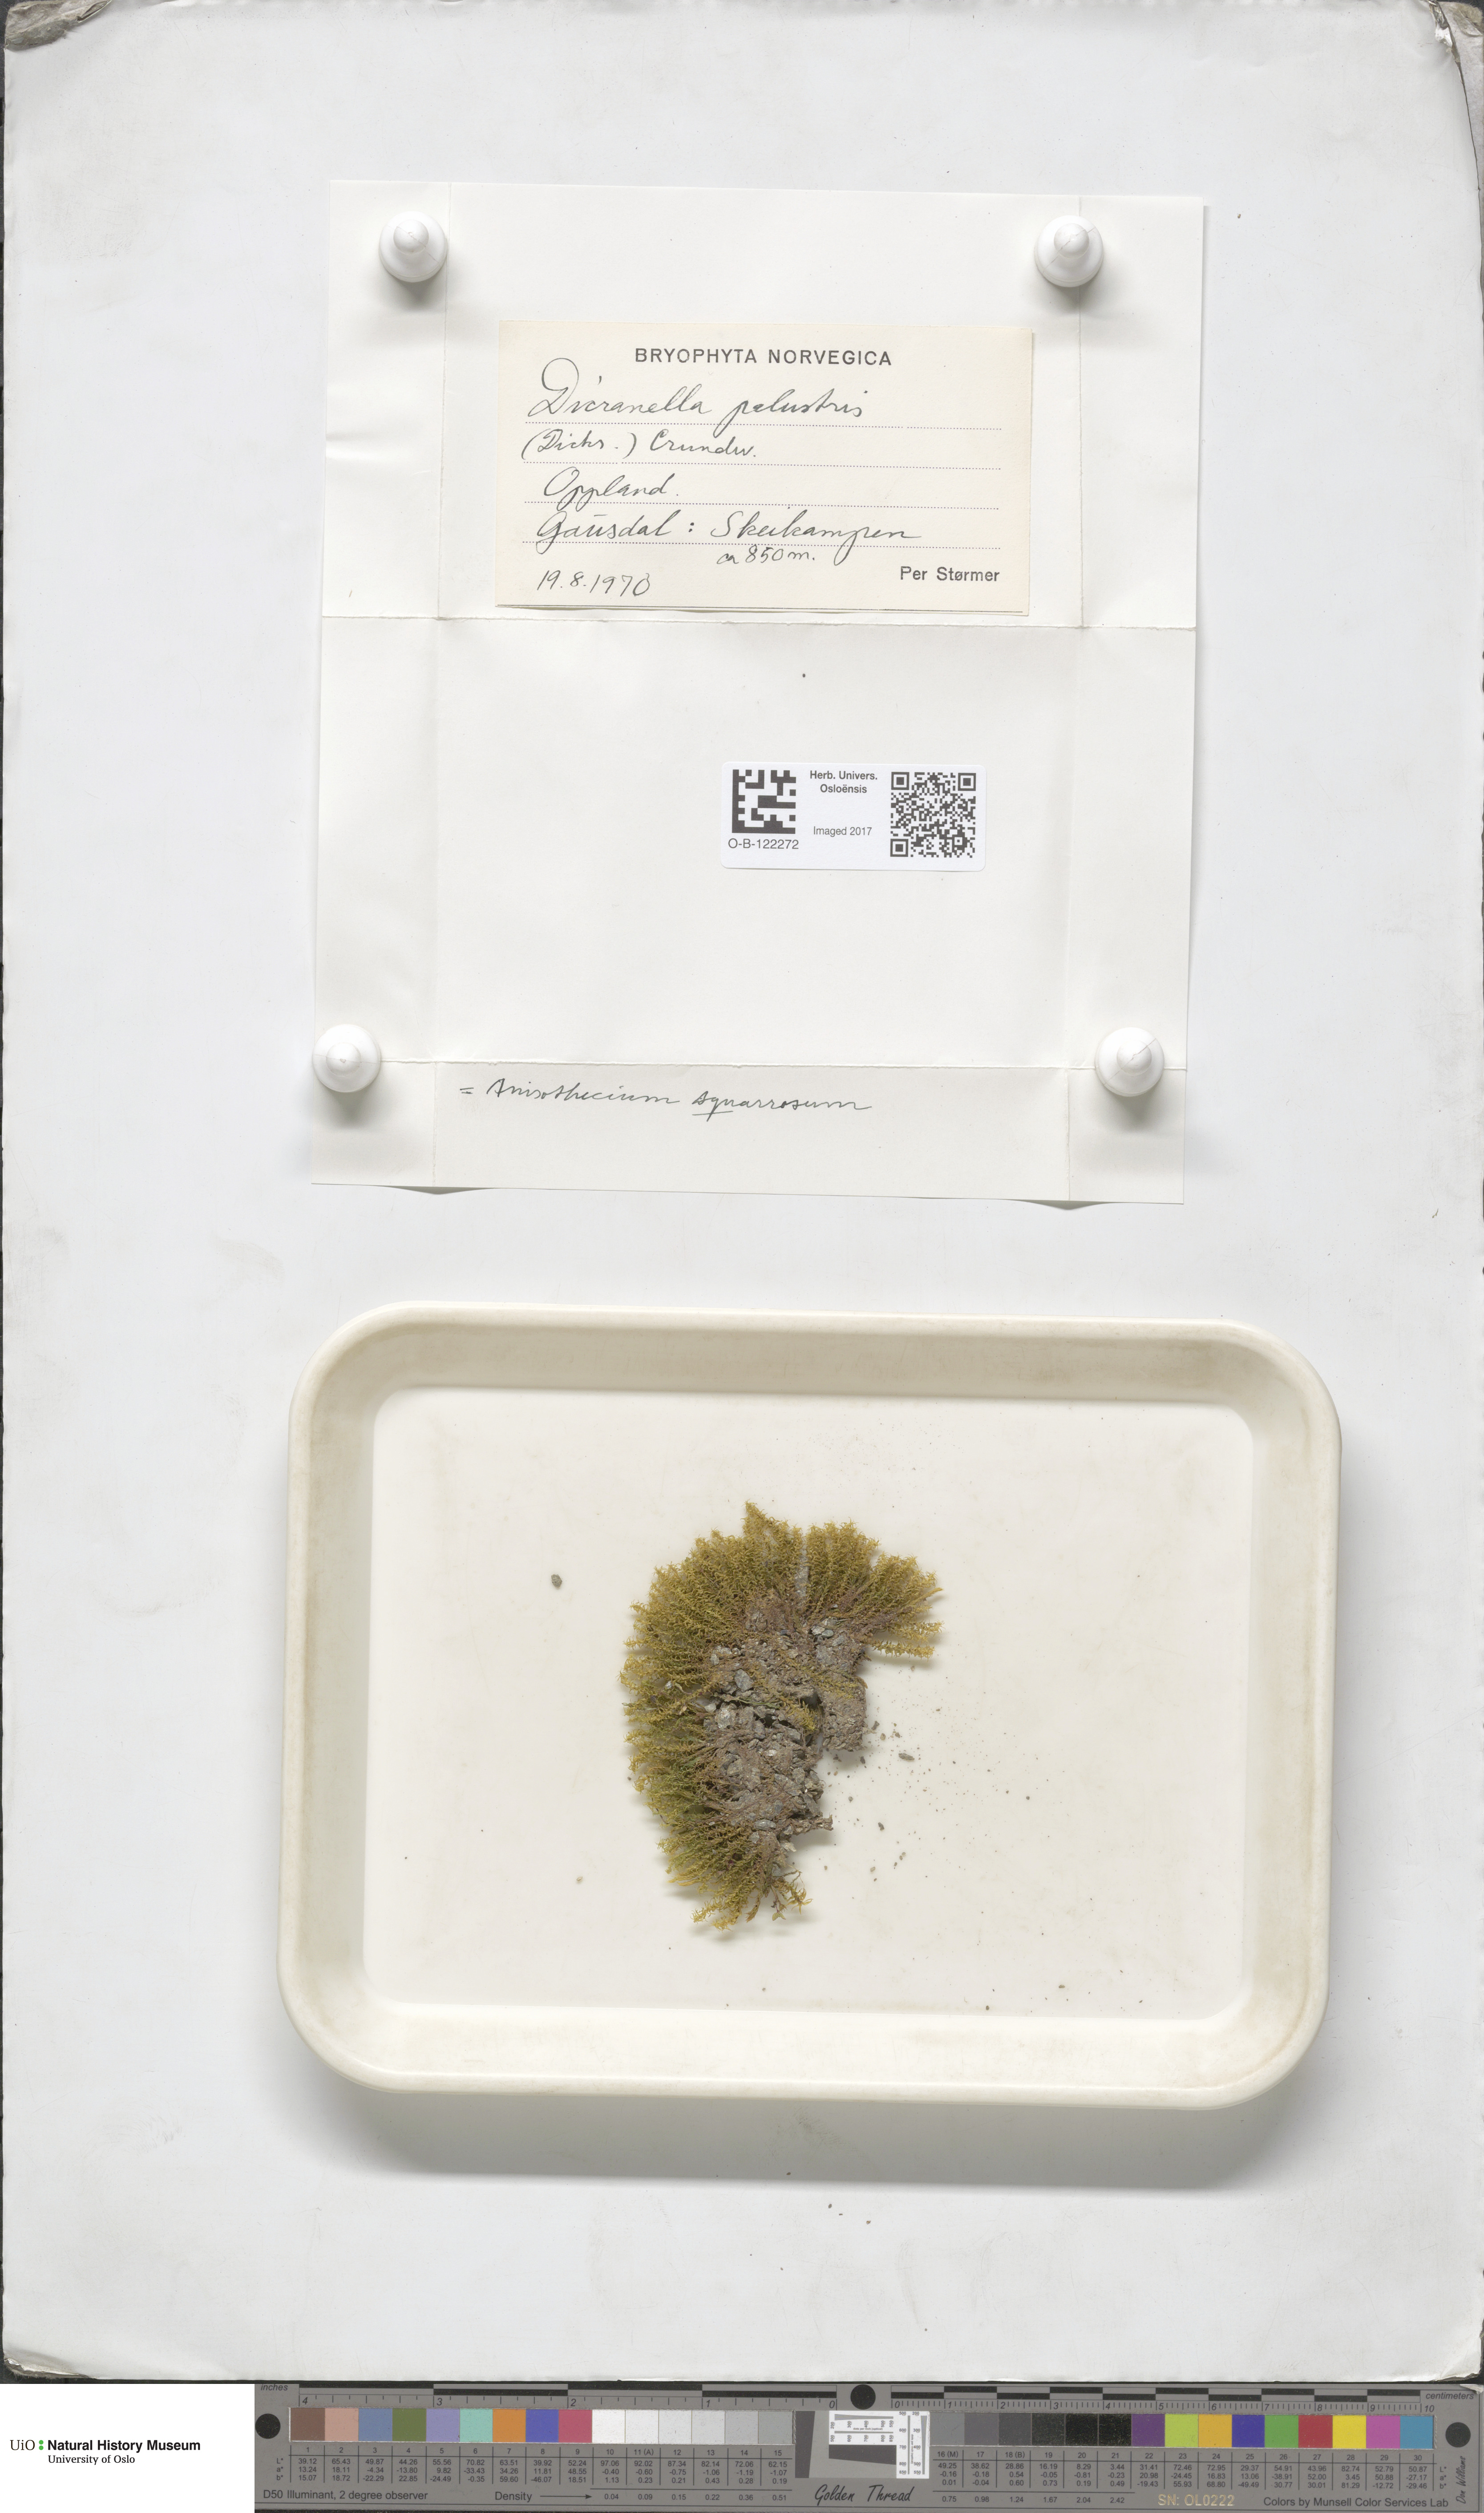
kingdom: Plantae
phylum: Bryophyta
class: Bryopsida
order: Dicranales
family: Aongstroemiaceae
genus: Diobelonella
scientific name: Diobelonella palustris
